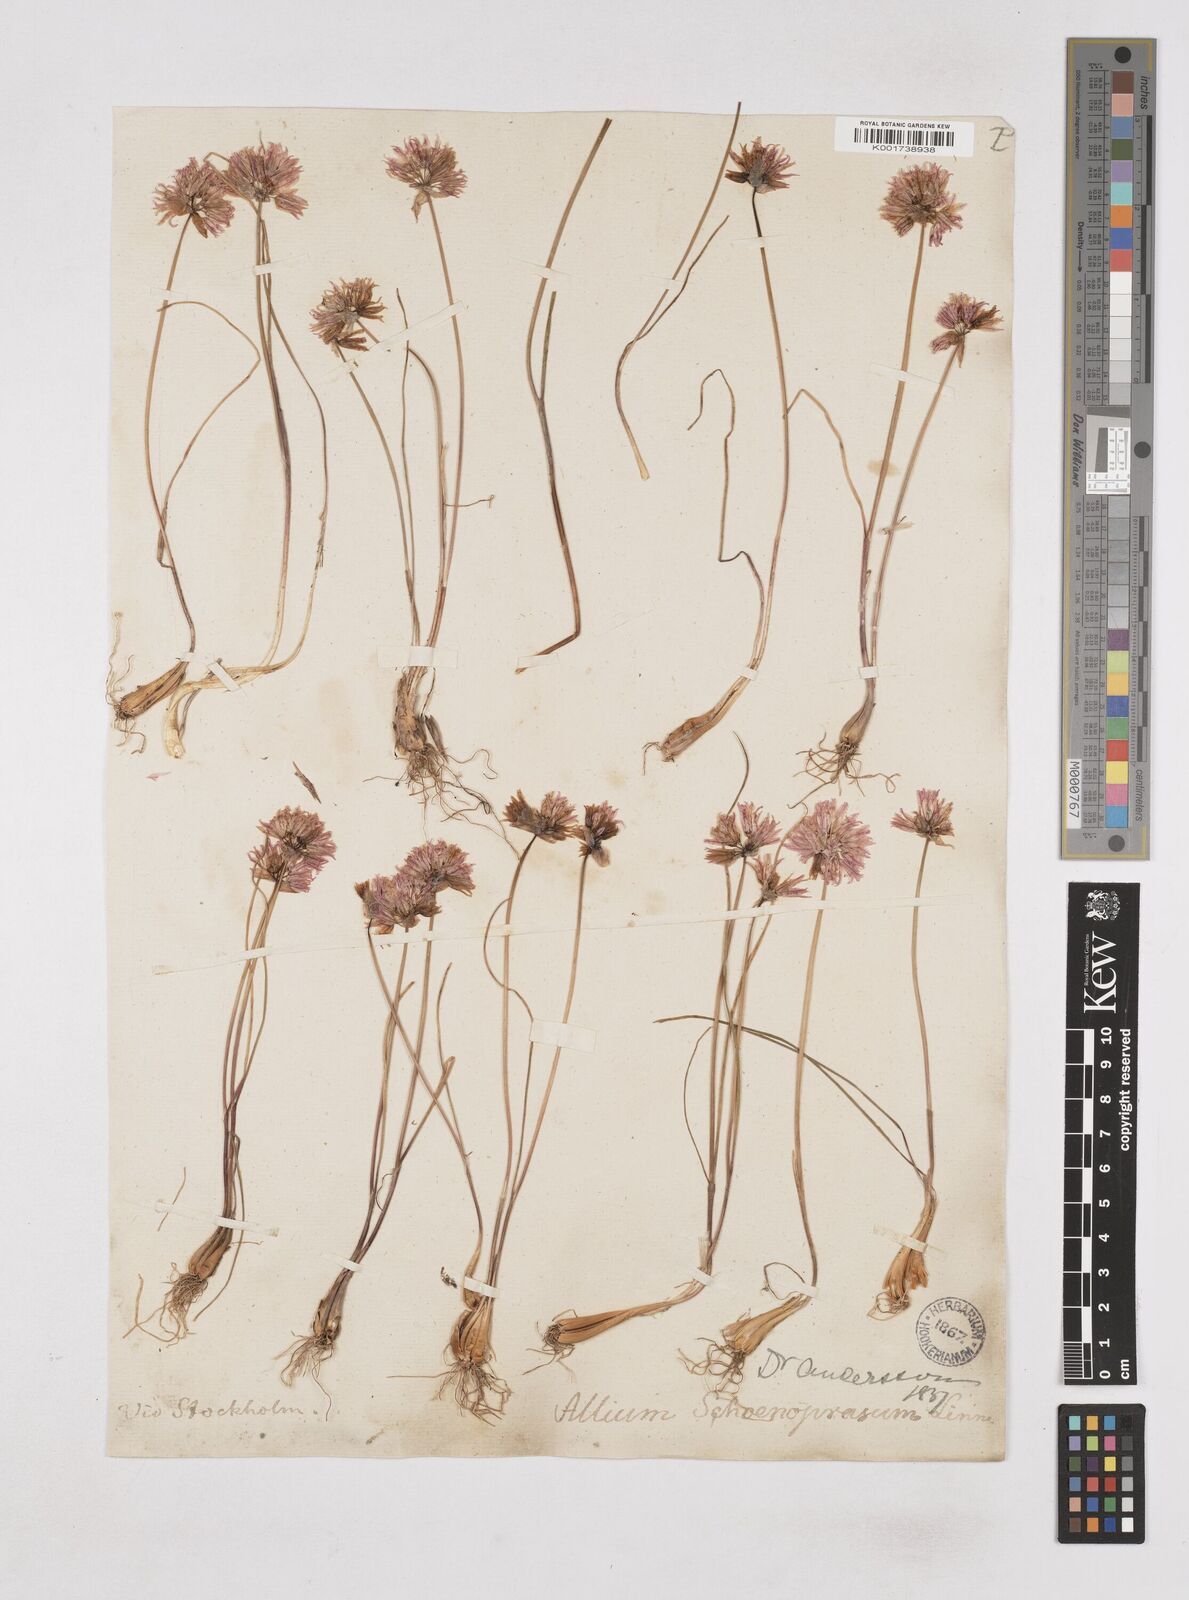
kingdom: Plantae
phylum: Tracheophyta
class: Liliopsida
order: Asparagales
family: Amaryllidaceae
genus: Allium
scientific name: Allium schoenoprasum
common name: Chives
